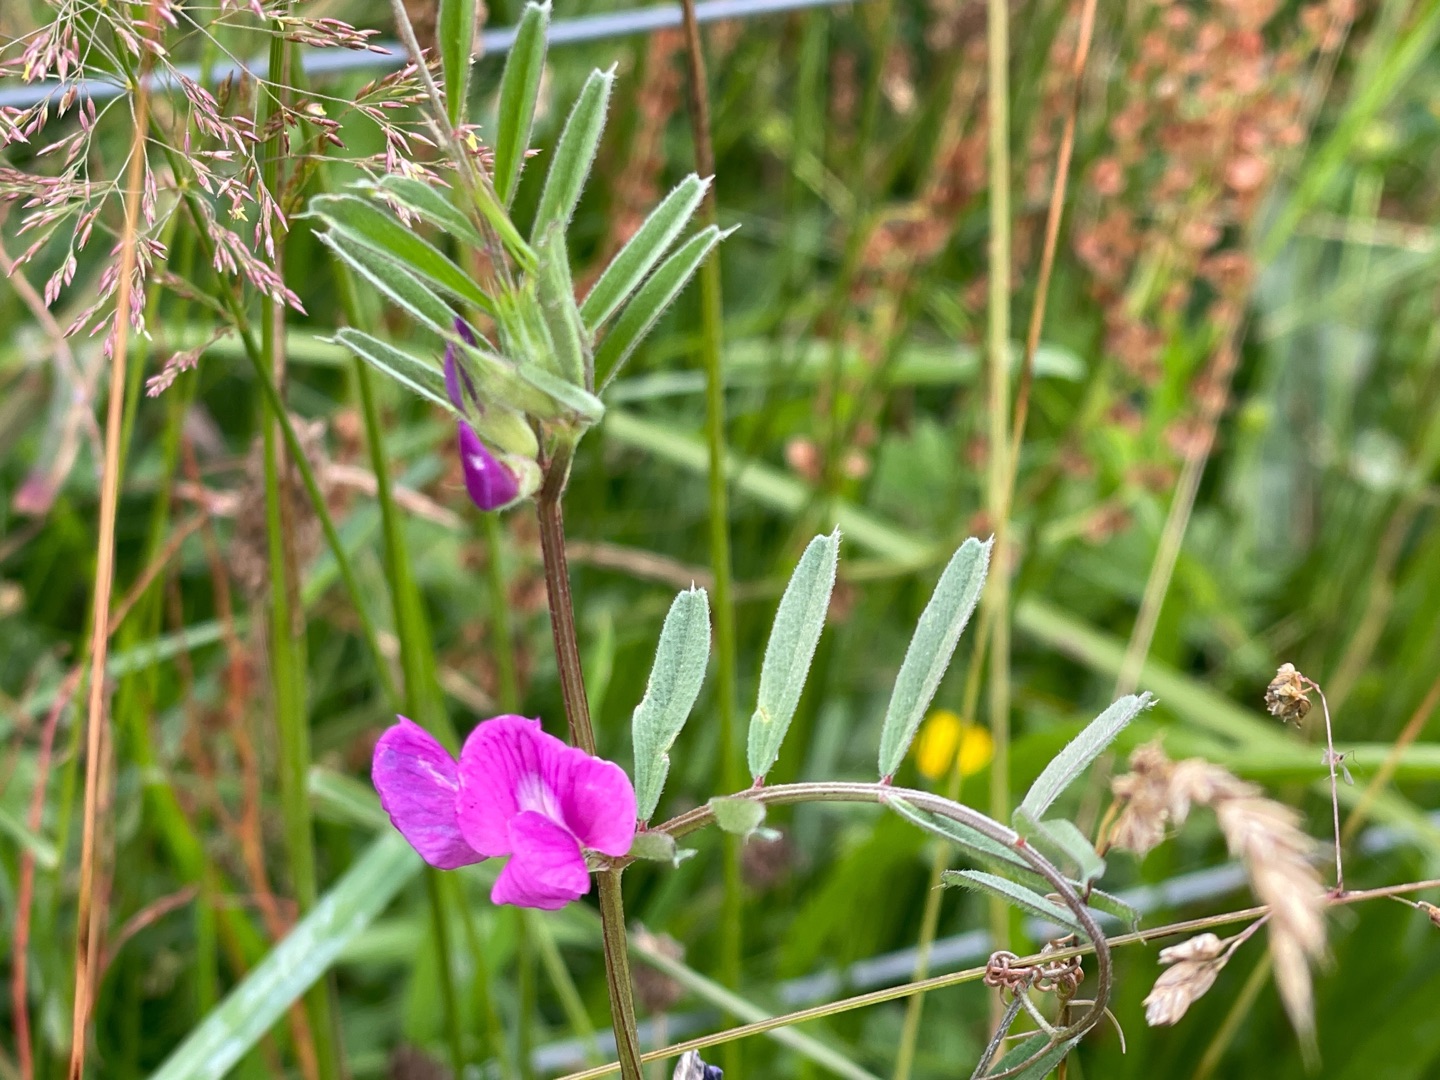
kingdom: Plantae
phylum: Tracheophyta
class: Magnoliopsida
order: Fabales
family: Fabaceae
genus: Vicia
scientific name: Vicia sativa
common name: Foder-vikke
